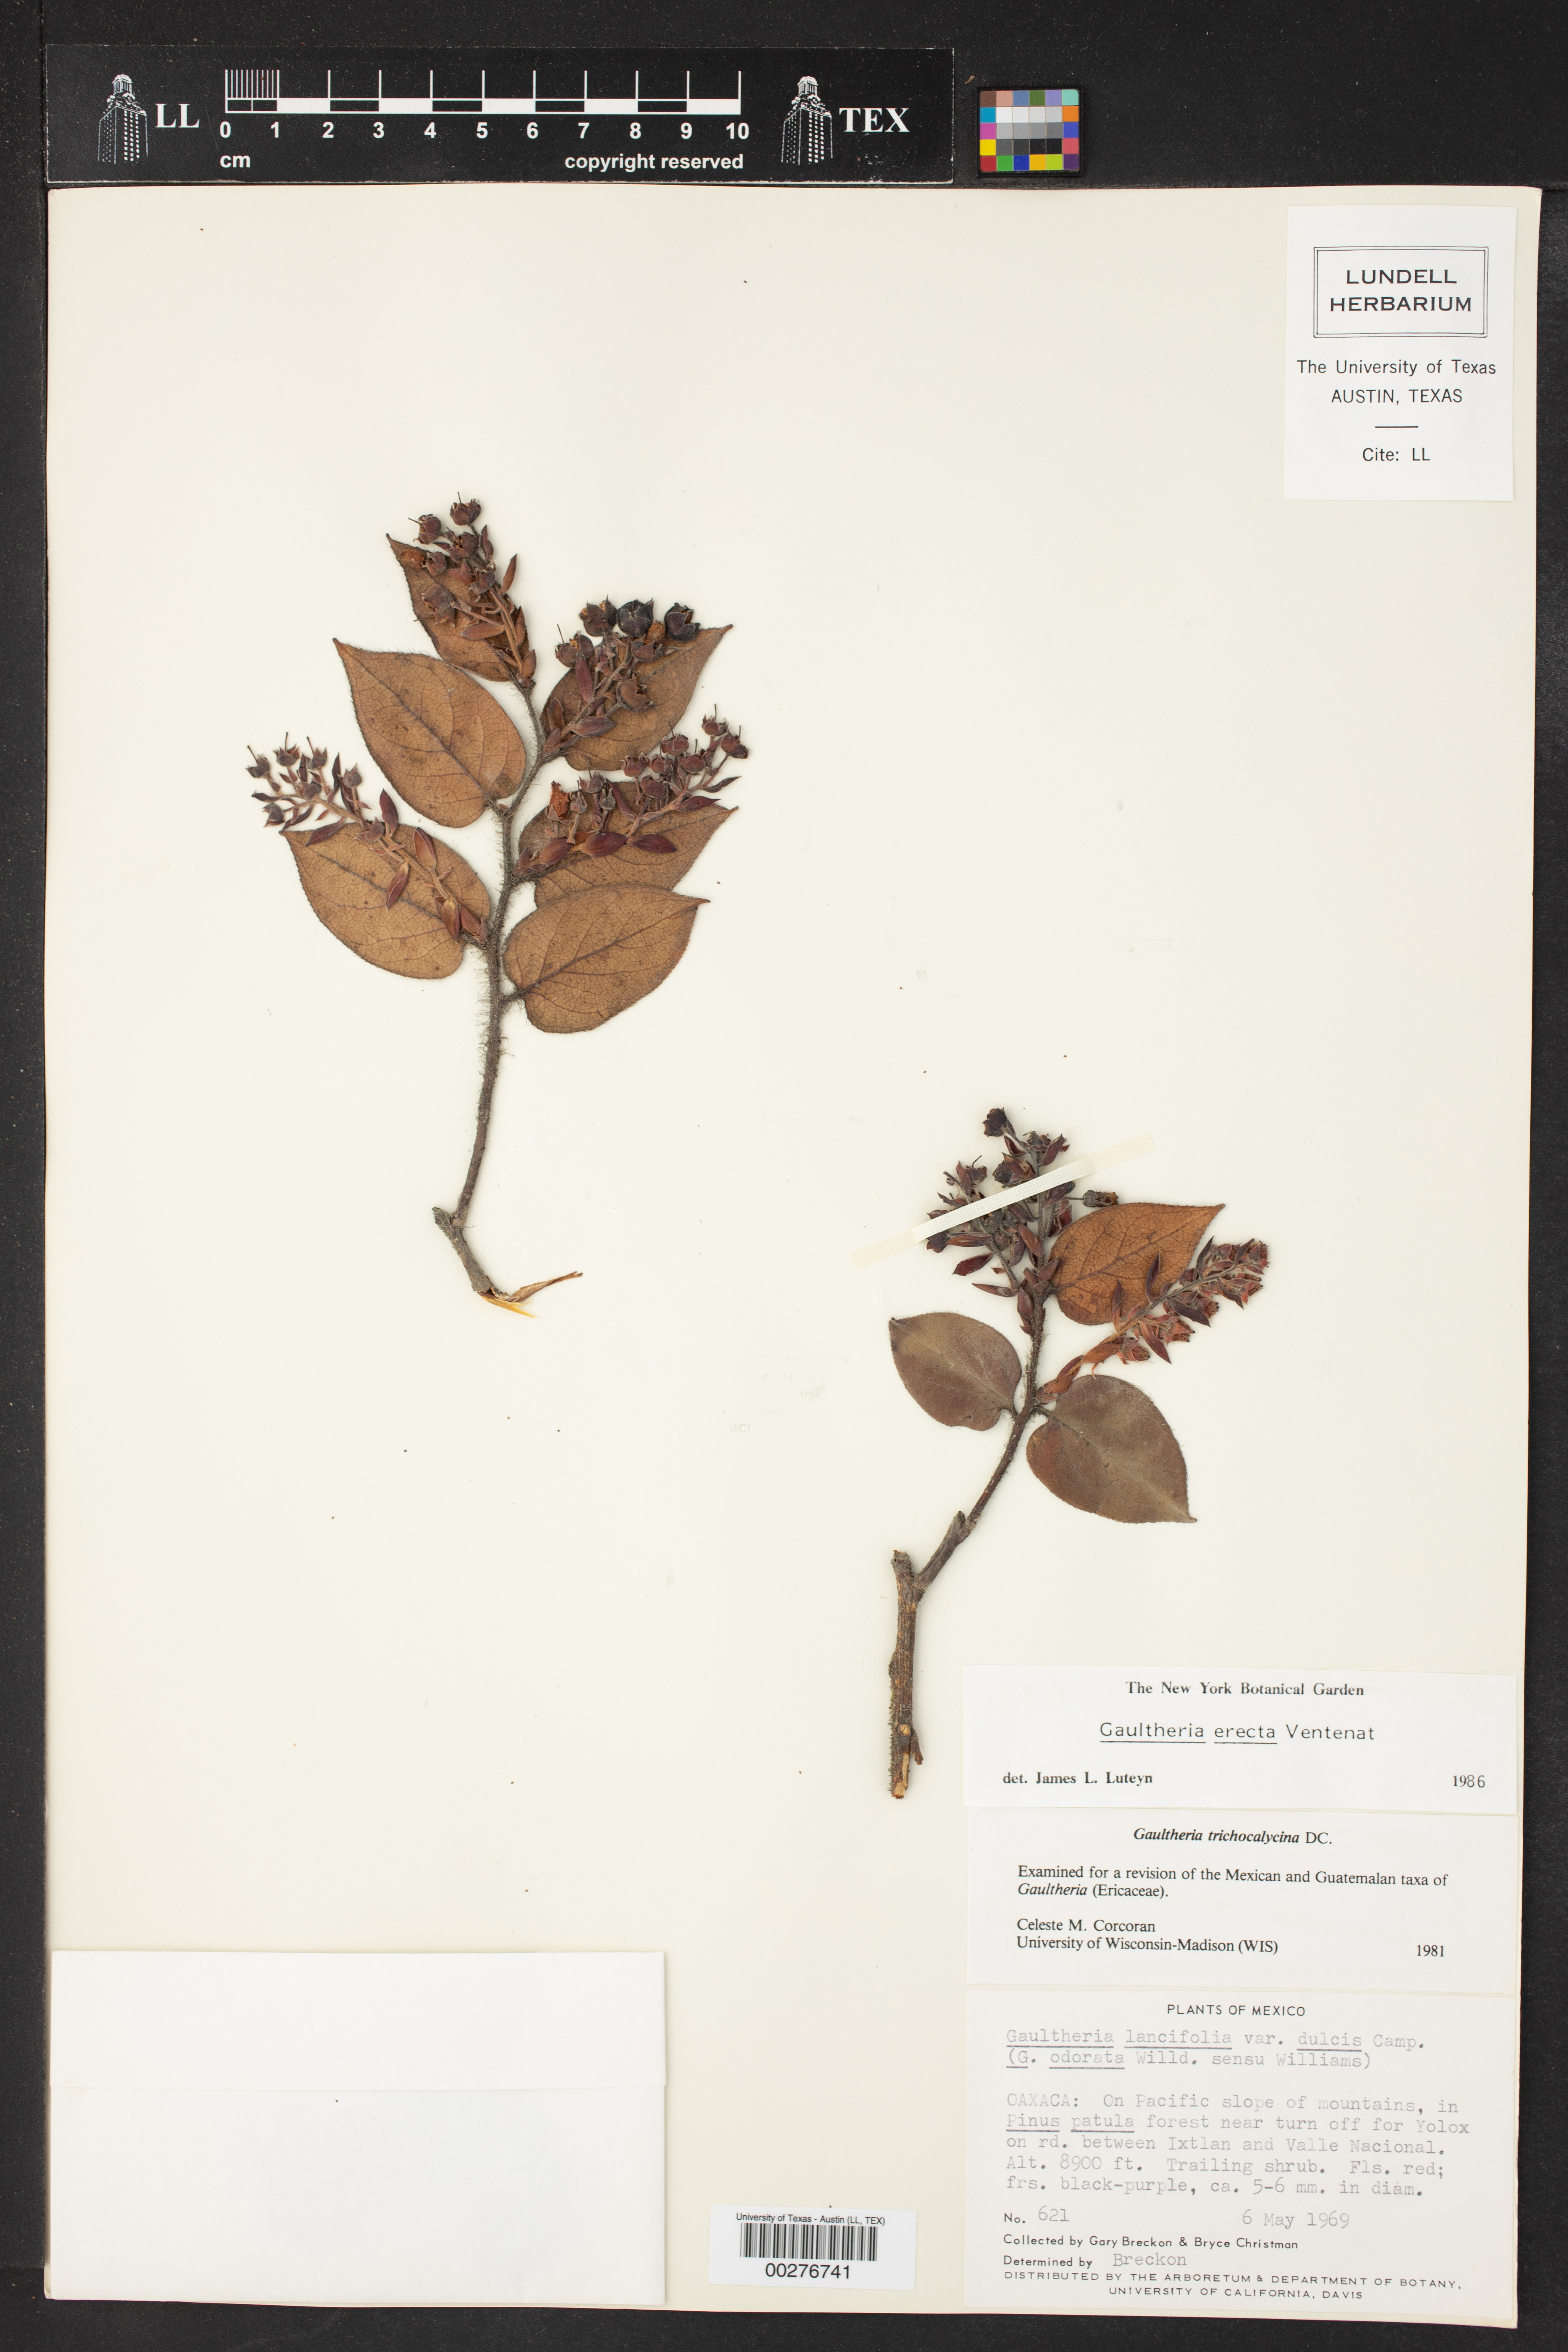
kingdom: Plantae
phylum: Tracheophyta
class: Magnoliopsida
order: Ericales
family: Ericaceae
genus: Gaultheria
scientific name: Gaultheria erecta
